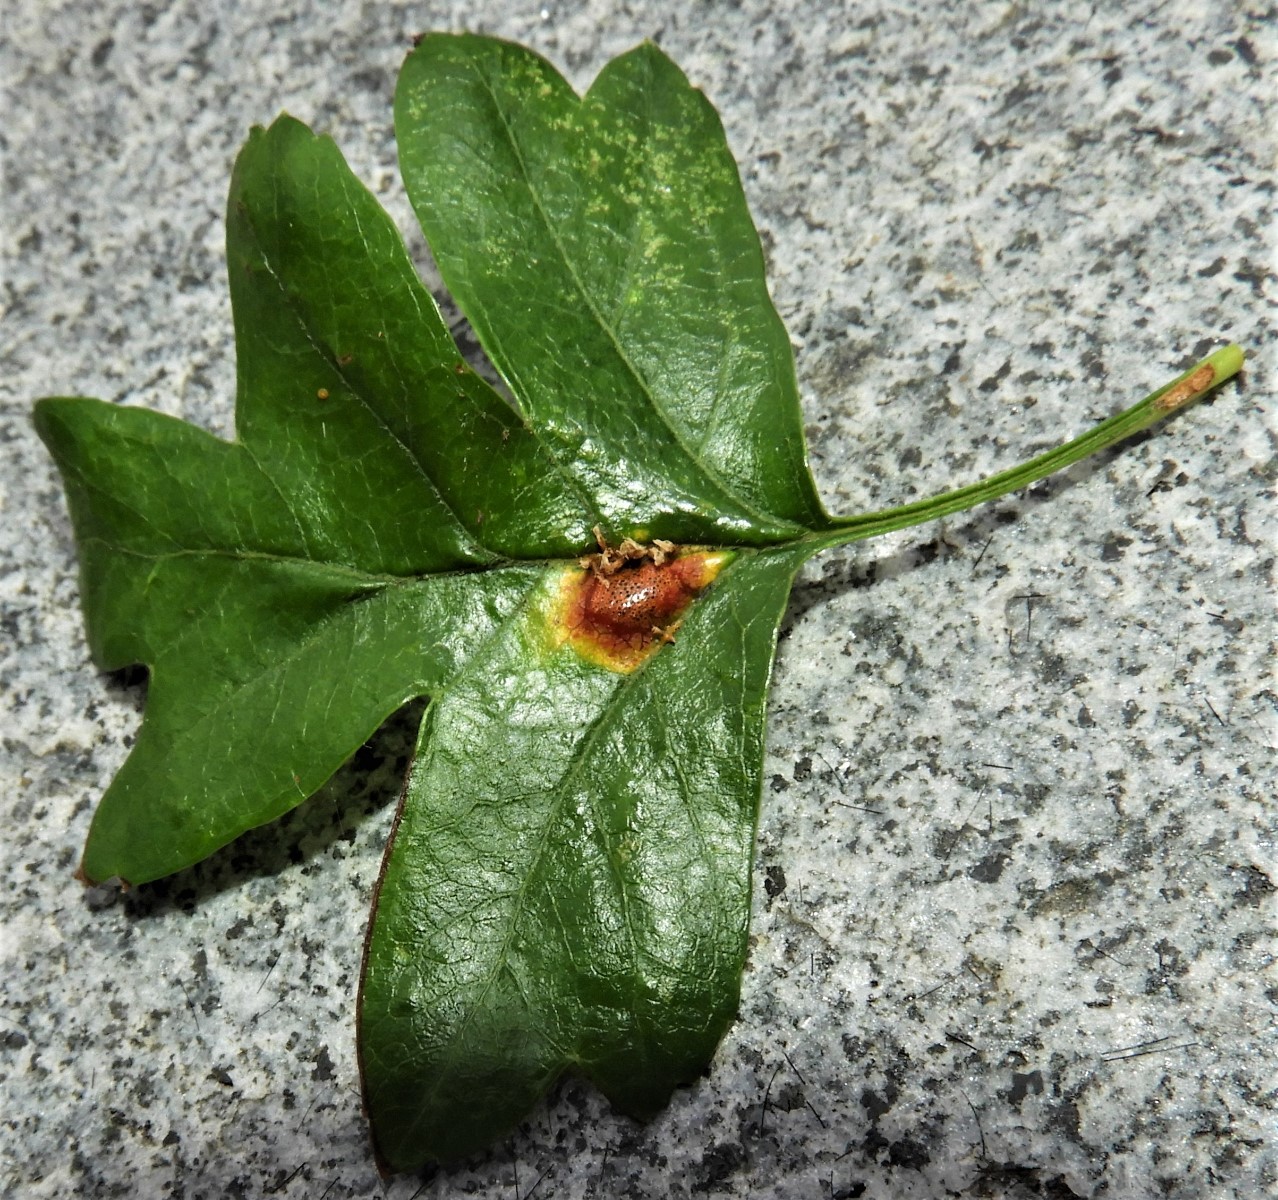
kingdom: Fungi
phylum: Basidiomycota
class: Pucciniomycetes
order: Pucciniales
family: Gymnosporangiaceae
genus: Gymnosporangium
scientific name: Gymnosporangium
